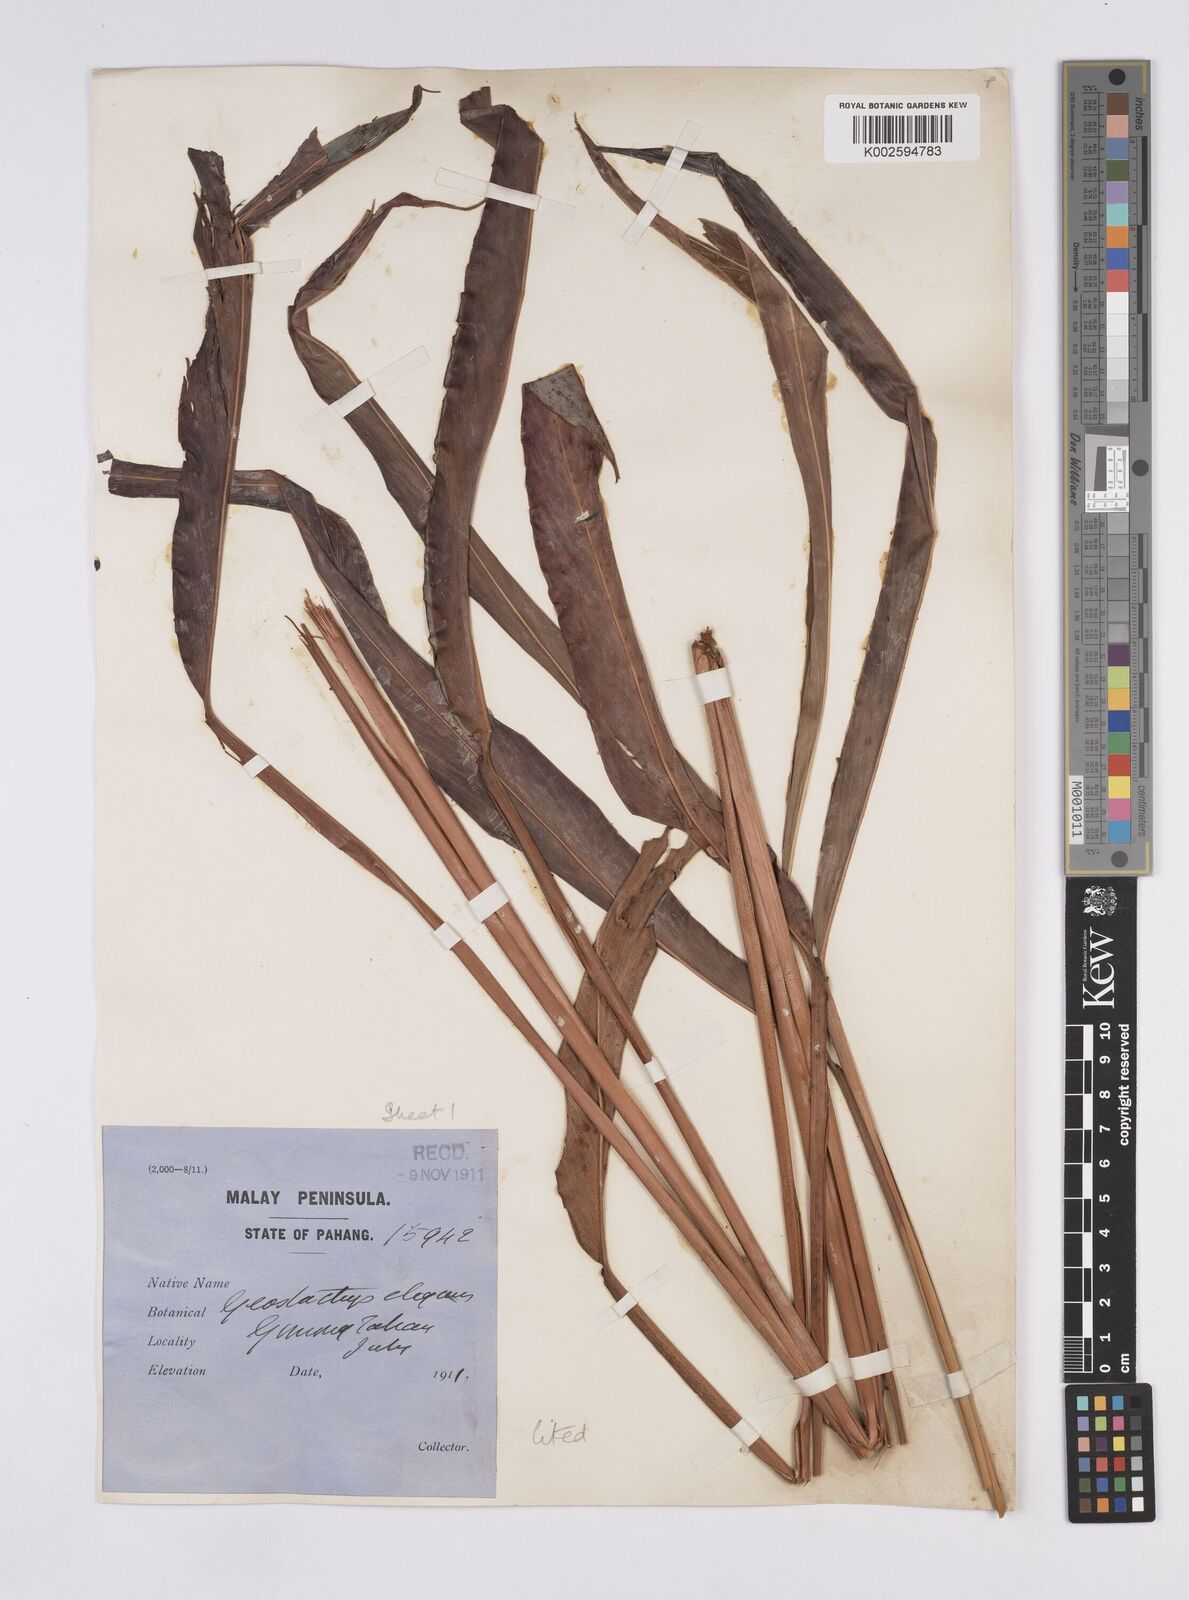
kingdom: Plantae
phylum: Tracheophyta
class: Liliopsida
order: Zingiberales
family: Zingiberaceae
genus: Geostachys
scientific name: Geostachys elegans
